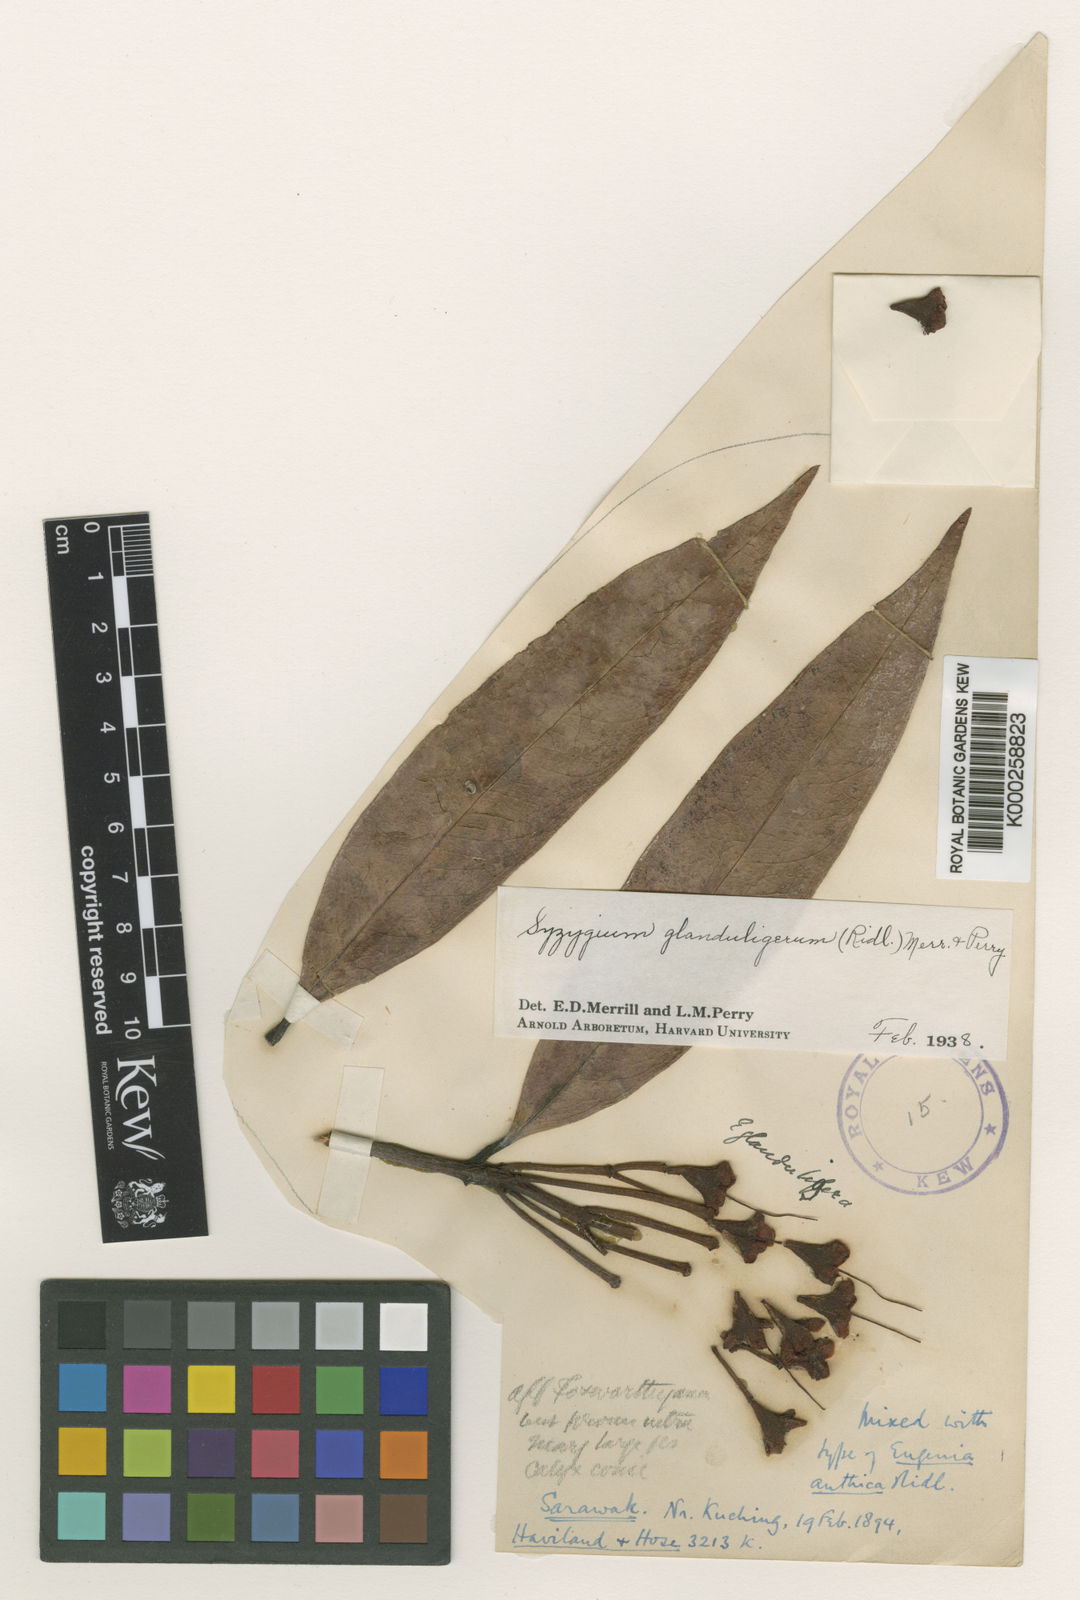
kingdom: Plantae
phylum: Tracheophyta
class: Magnoliopsida
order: Myrtales
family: Myrtaceae
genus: Syzygium
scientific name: Syzygium glanduligerum
